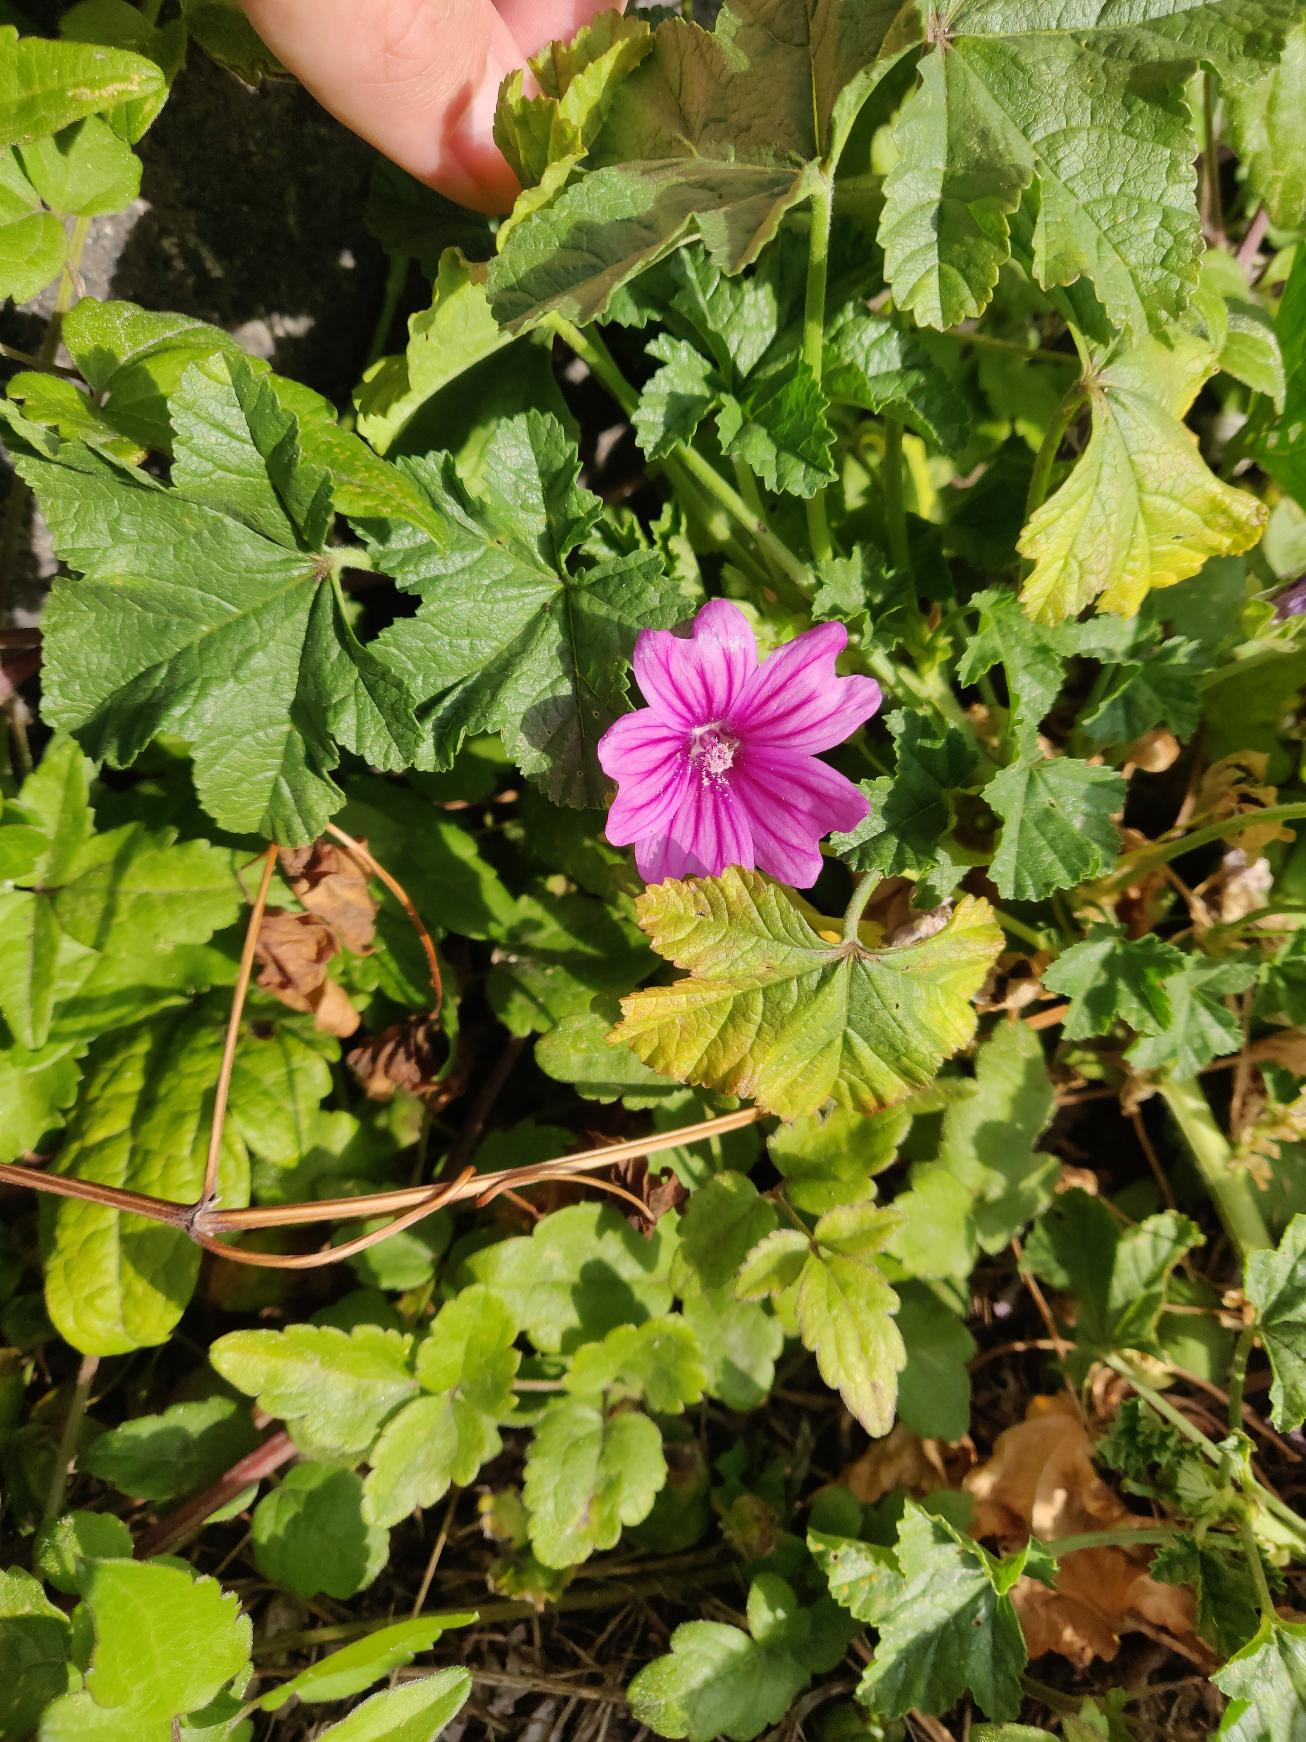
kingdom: Plantae
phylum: Tracheophyta
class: Magnoliopsida
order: Malvales
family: Malvaceae
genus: Malva
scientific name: Malva sylvestris
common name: Stor katost
